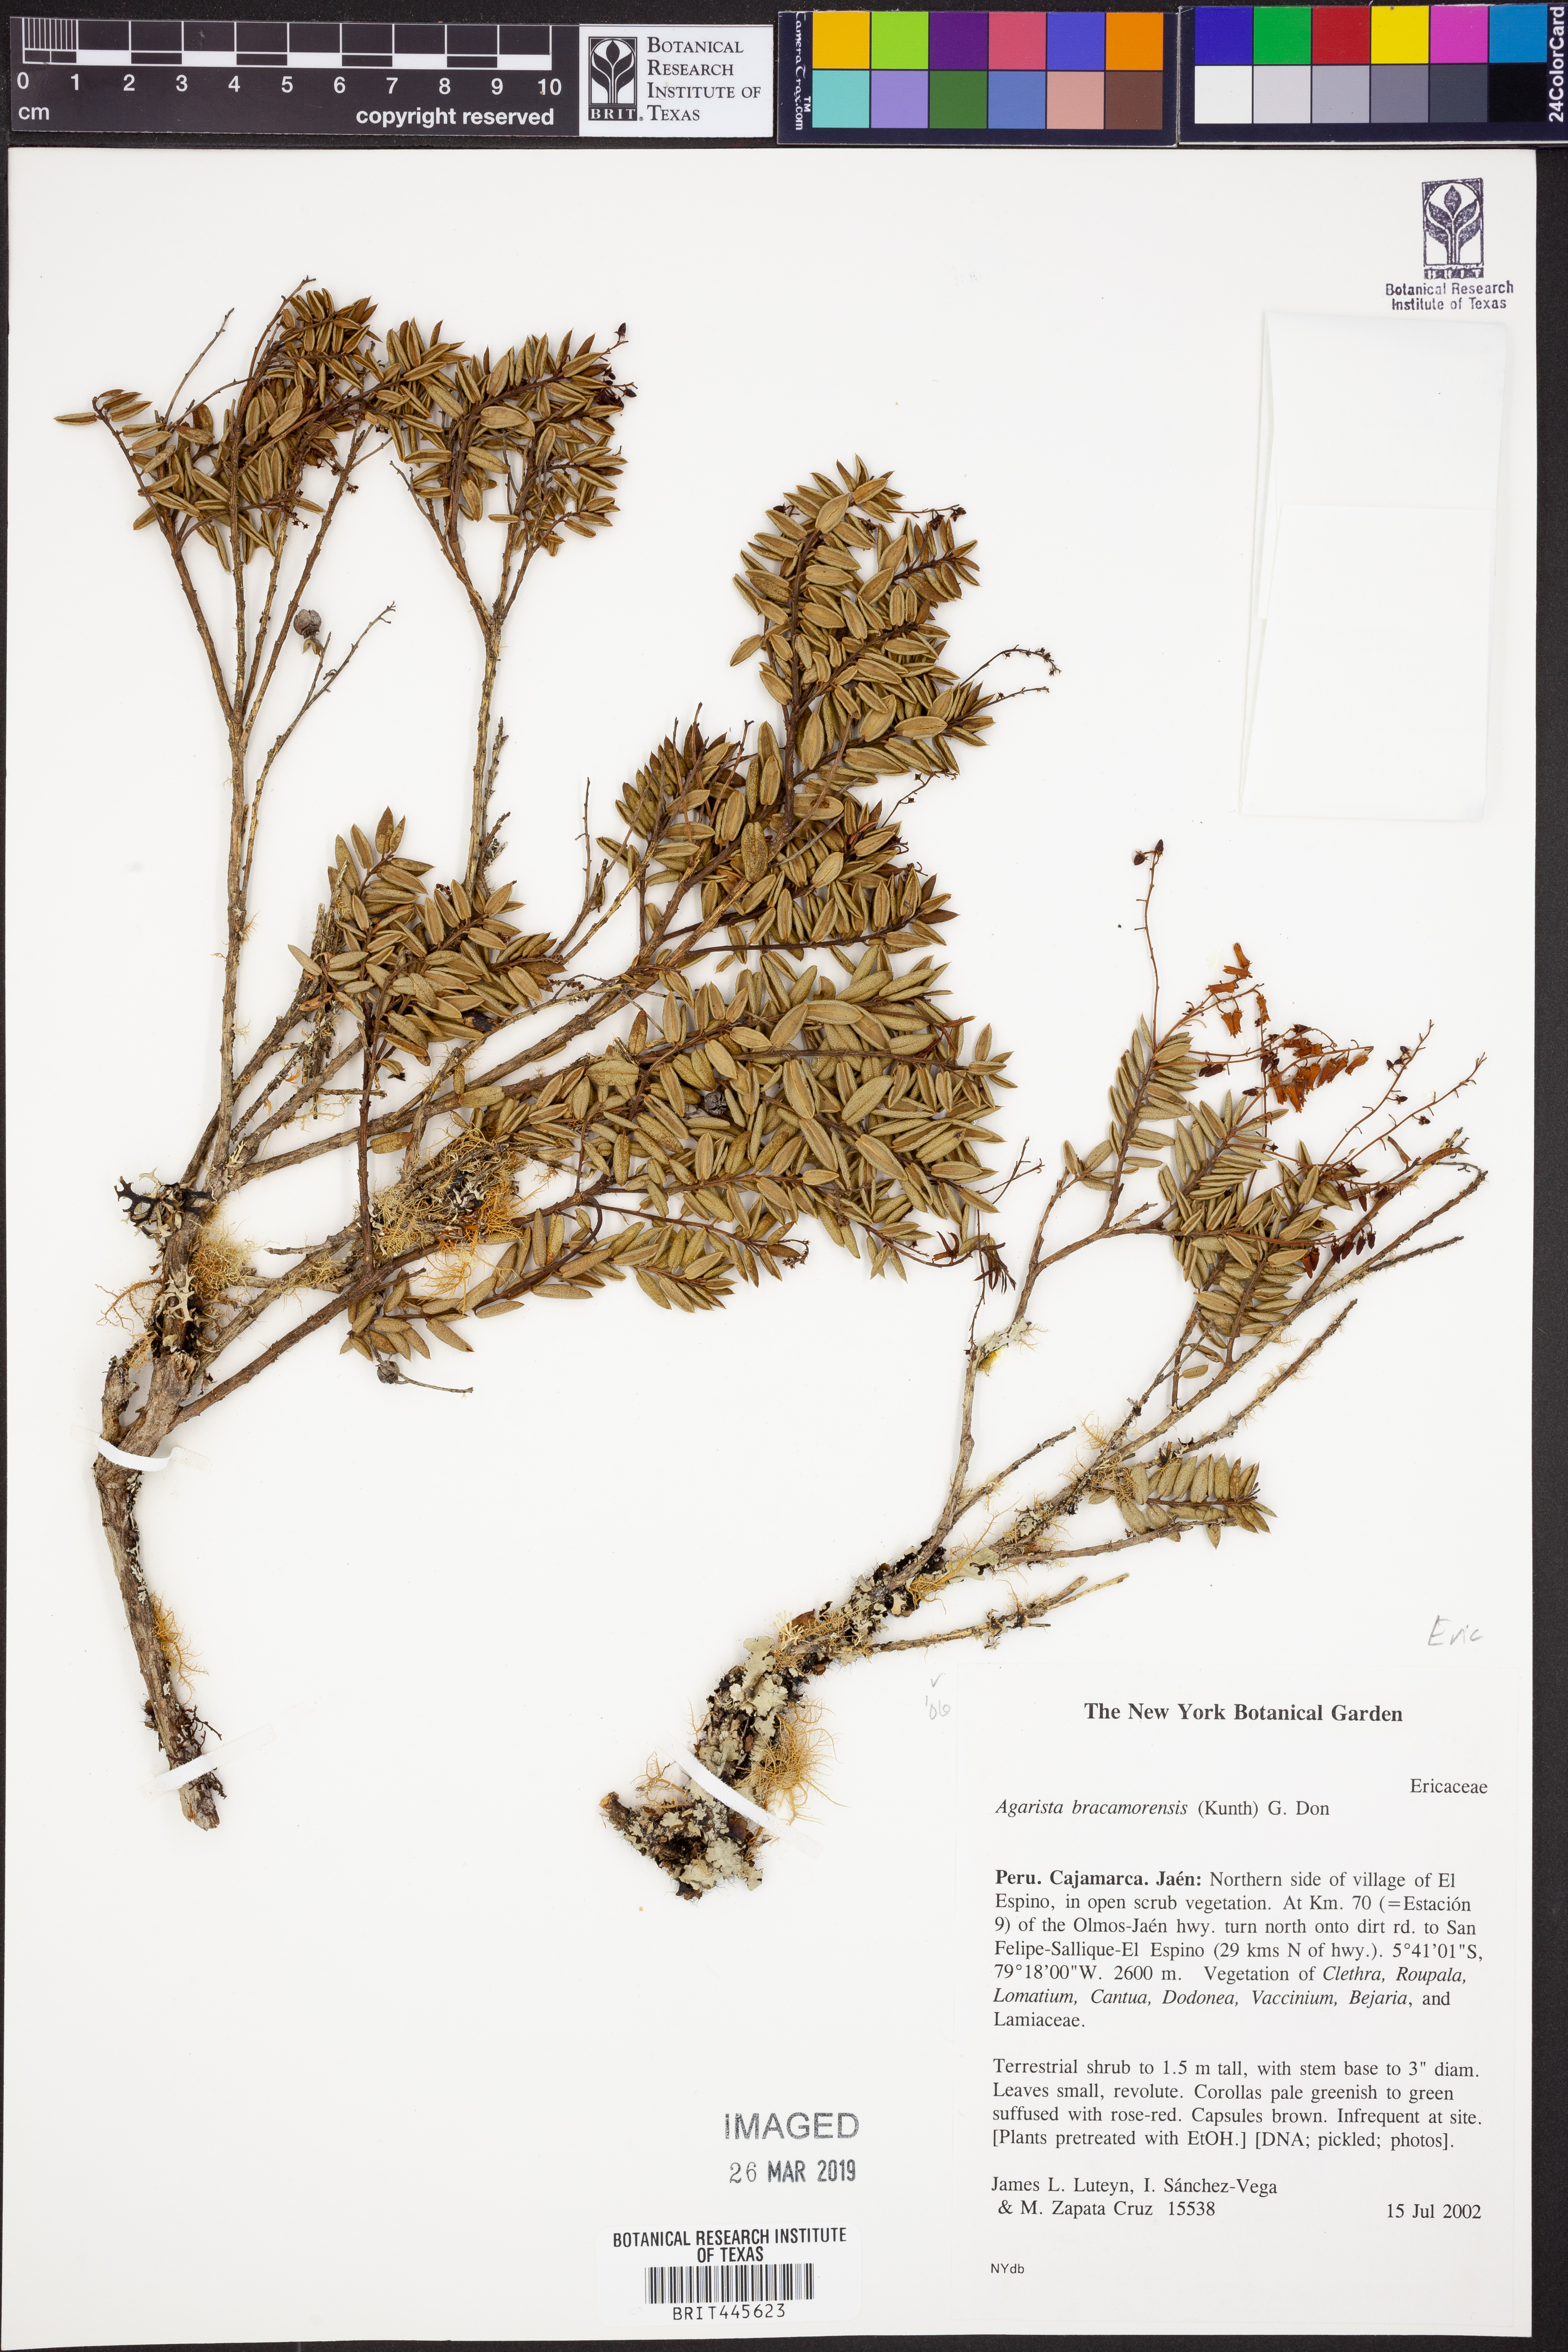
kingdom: Plantae
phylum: Tracheophyta
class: Magnoliopsida
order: Ericales
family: Ericaceae
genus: Agarista
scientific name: Agarista bracamorensis
